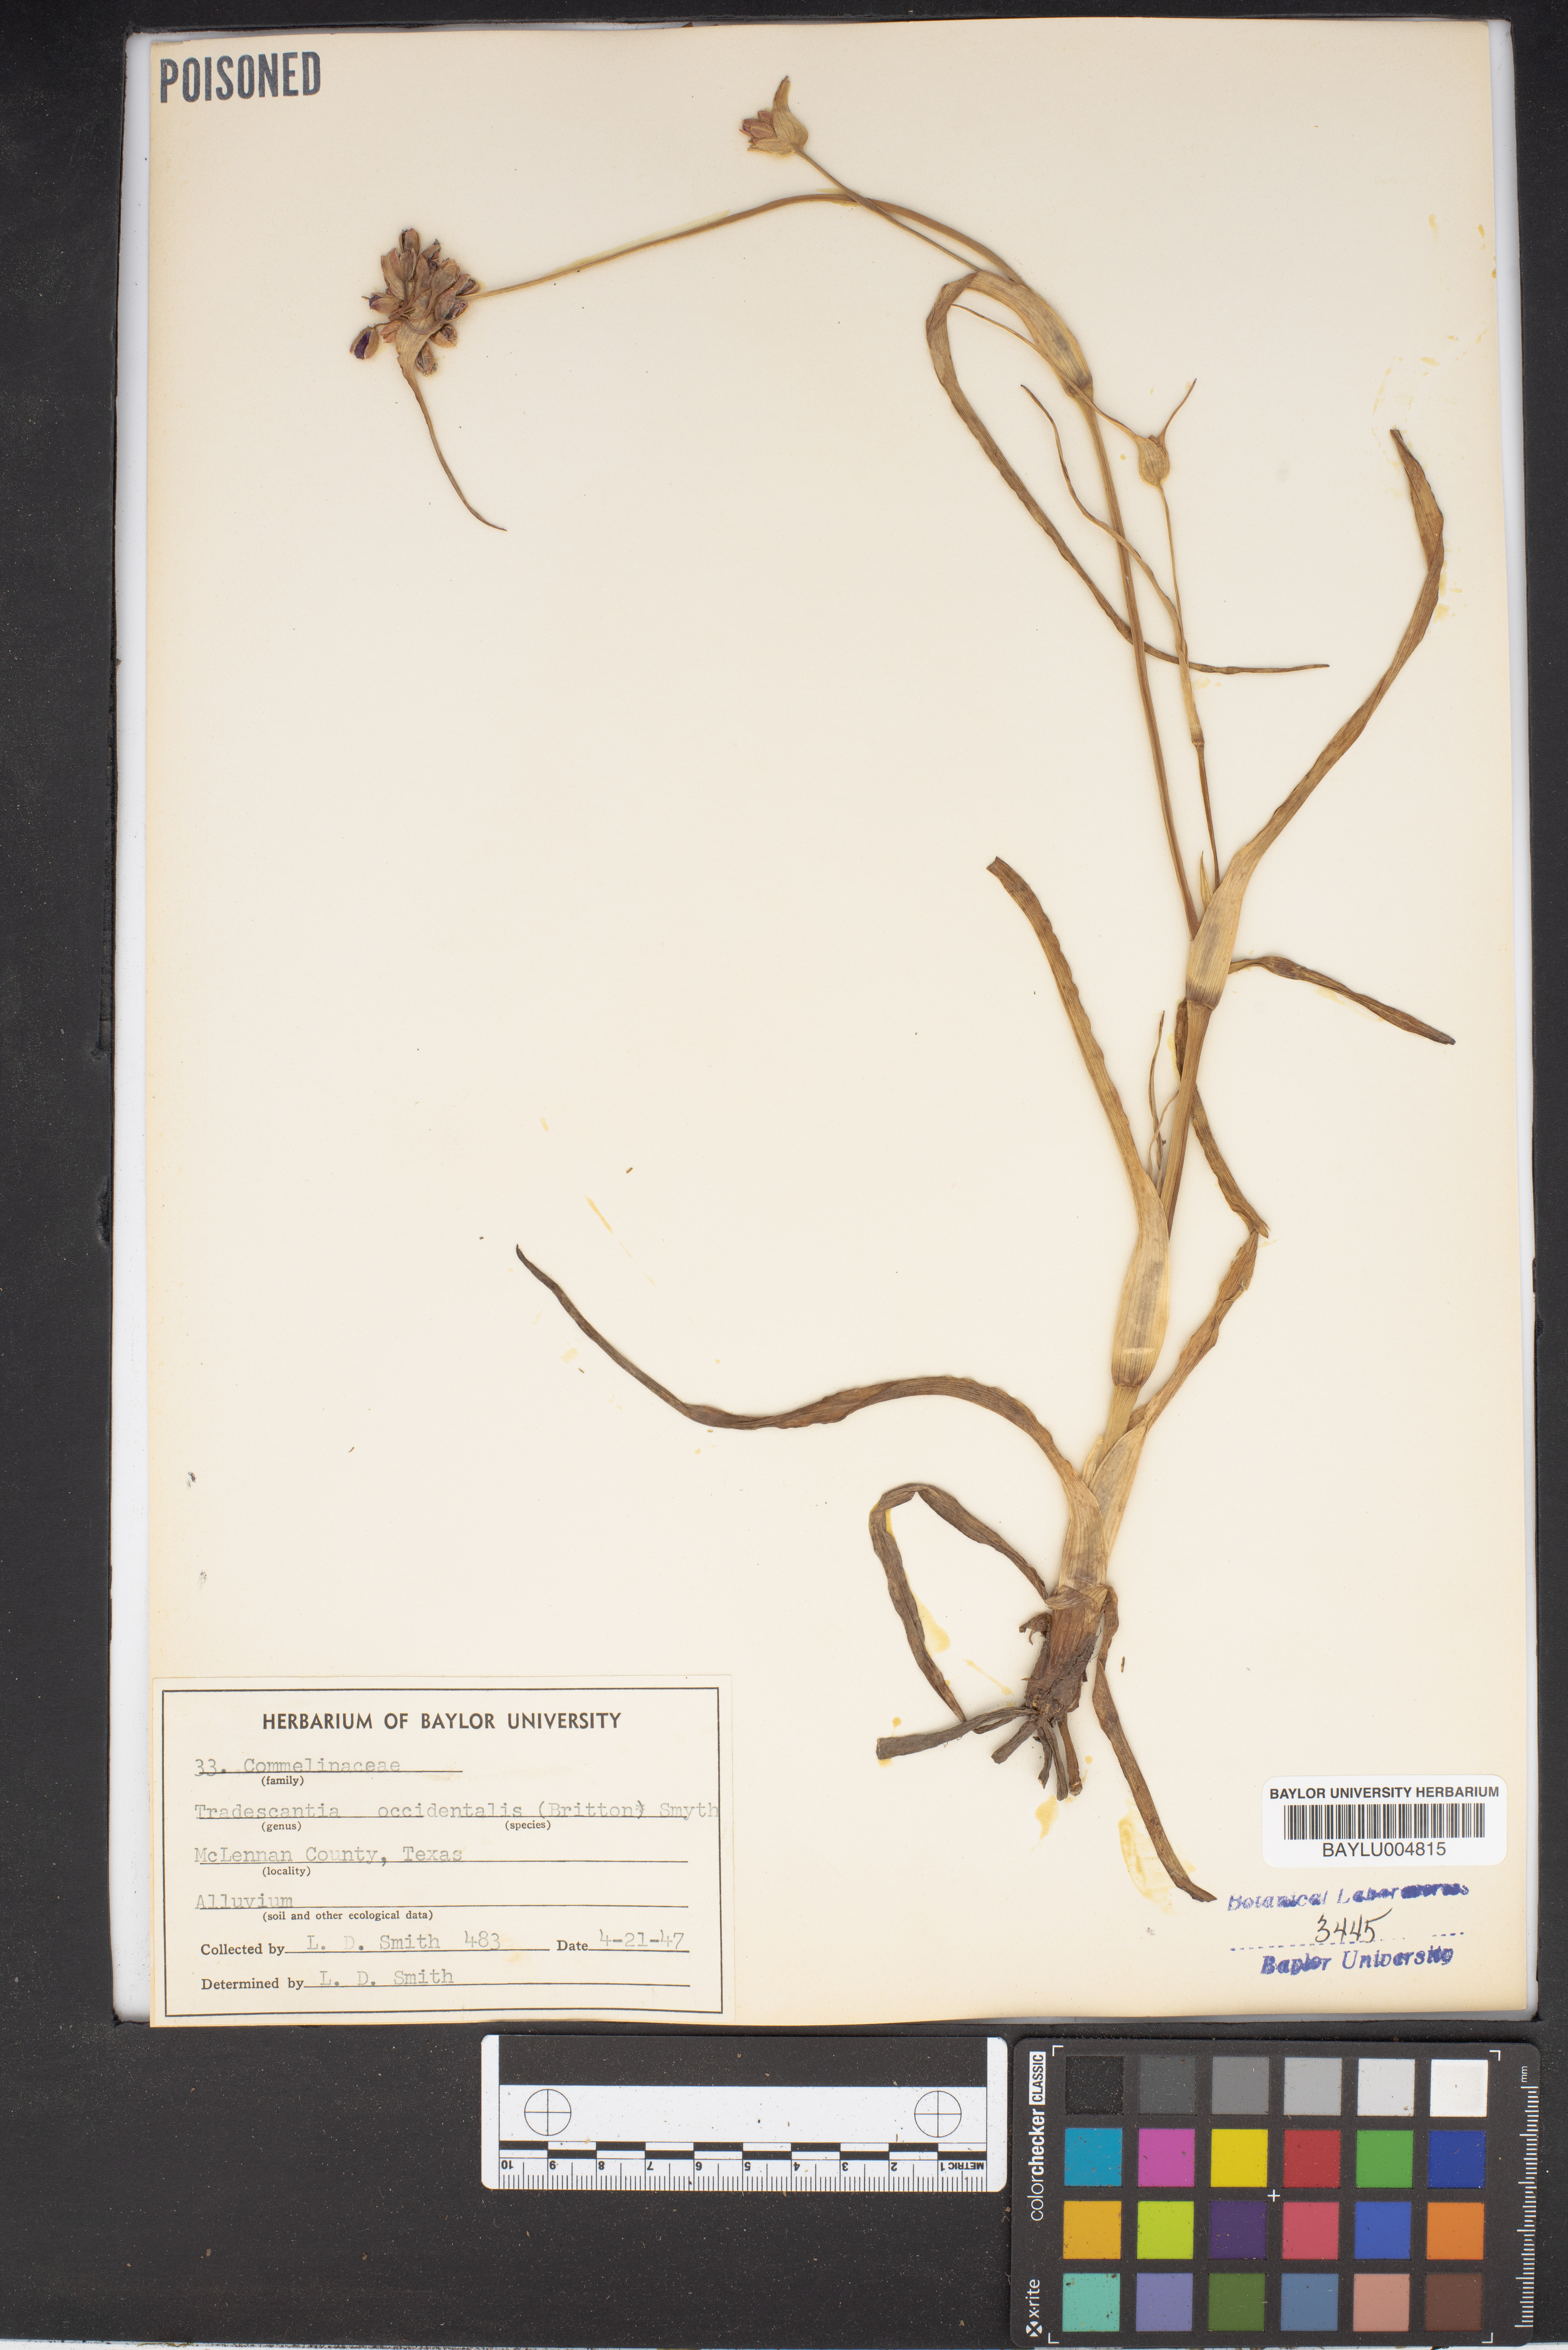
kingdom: Plantae
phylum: Tracheophyta
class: Liliopsida
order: Commelinales
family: Commelinaceae
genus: Tradescantia
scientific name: Tradescantia occidentalis
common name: Prairie spiderwort
